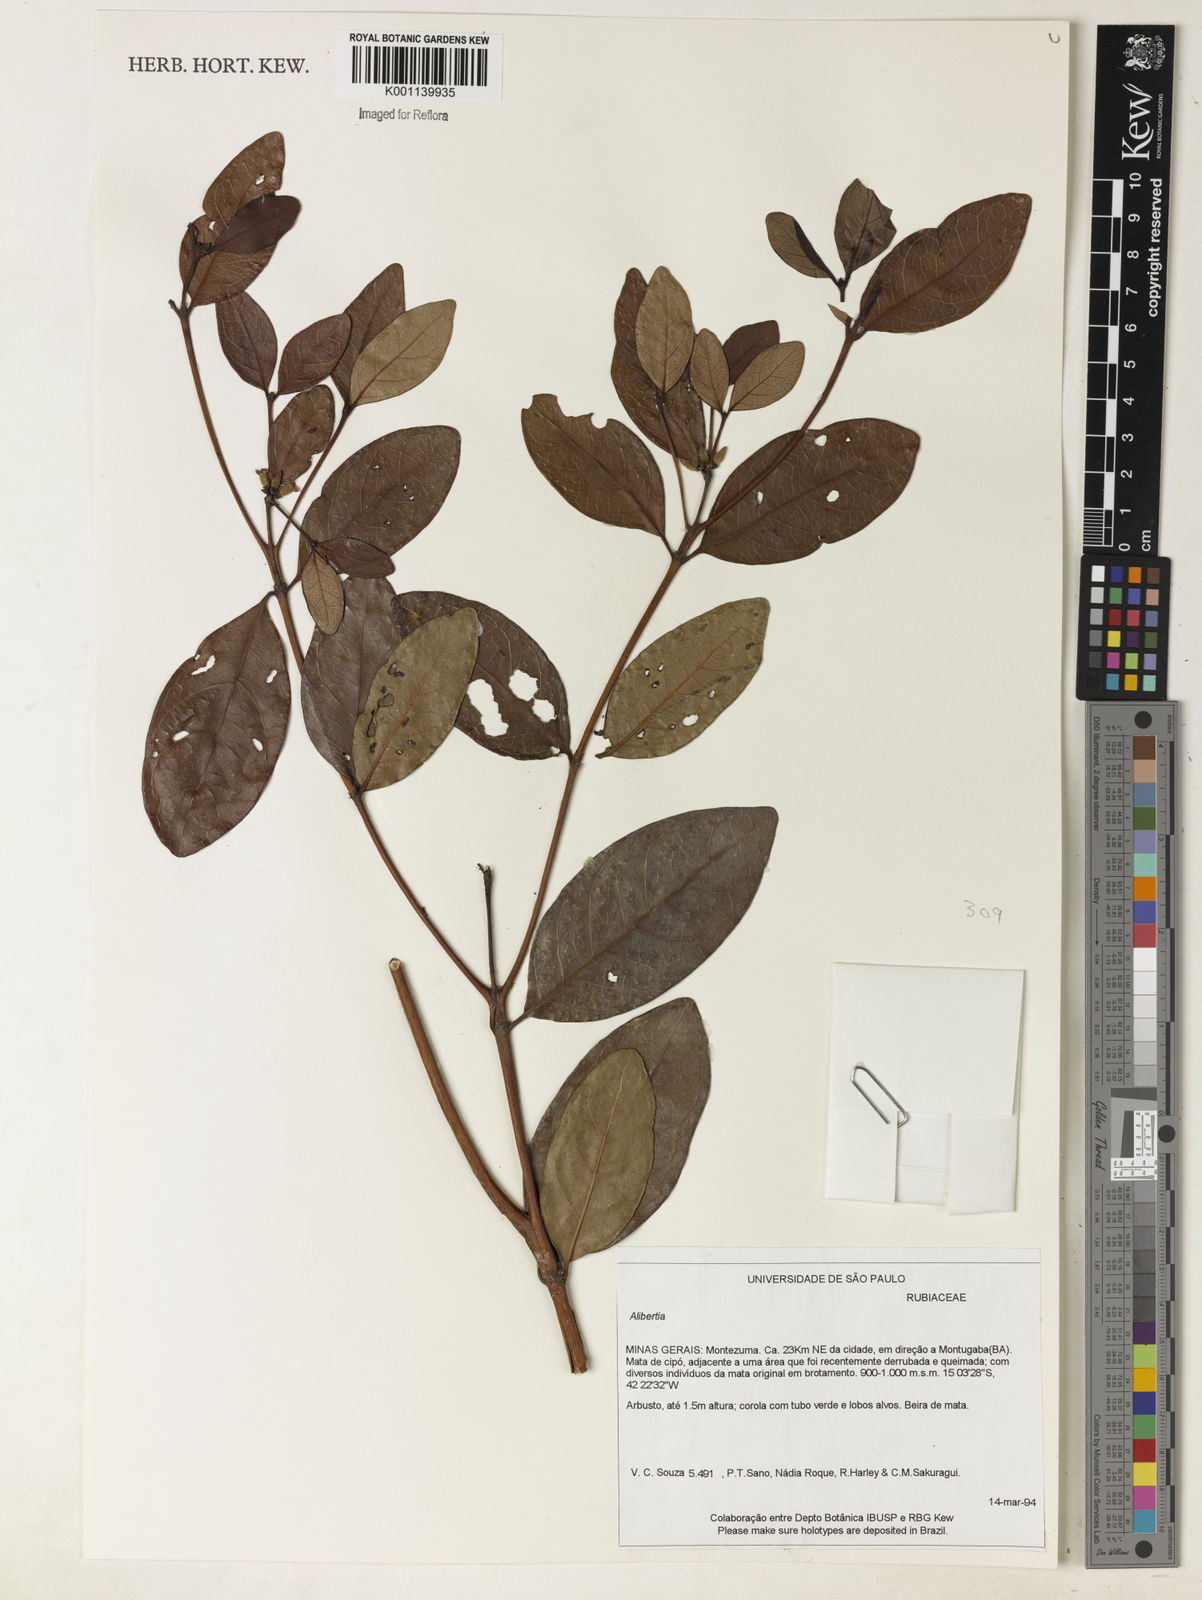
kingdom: Plantae
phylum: Tracheophyta
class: Magnoliopsida
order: Gentianales
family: Rubiaceae
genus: Alibertia
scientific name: Alibertia
